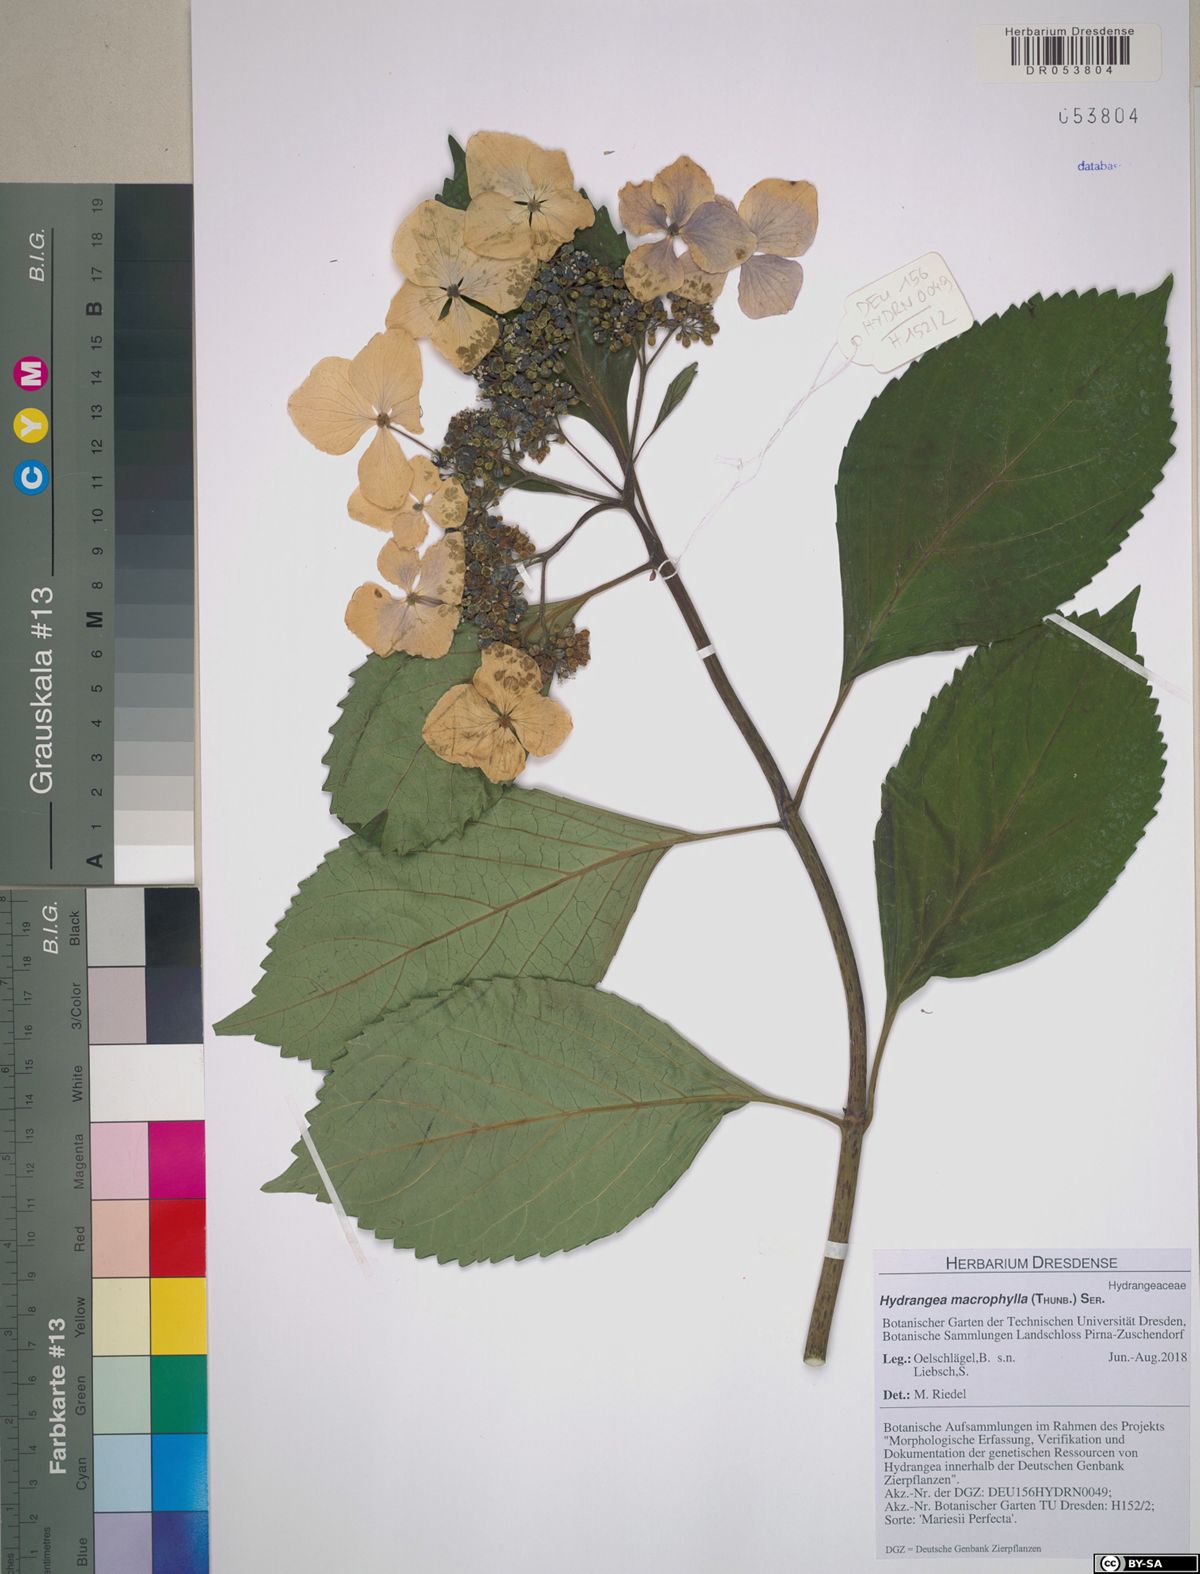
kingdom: Plantae
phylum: Tracheophyta
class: Magnoliopsida
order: Cornales
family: Hydrangeaceae
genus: Hydrangea
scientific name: Hydrangea macrophylla
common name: Hydrangea
